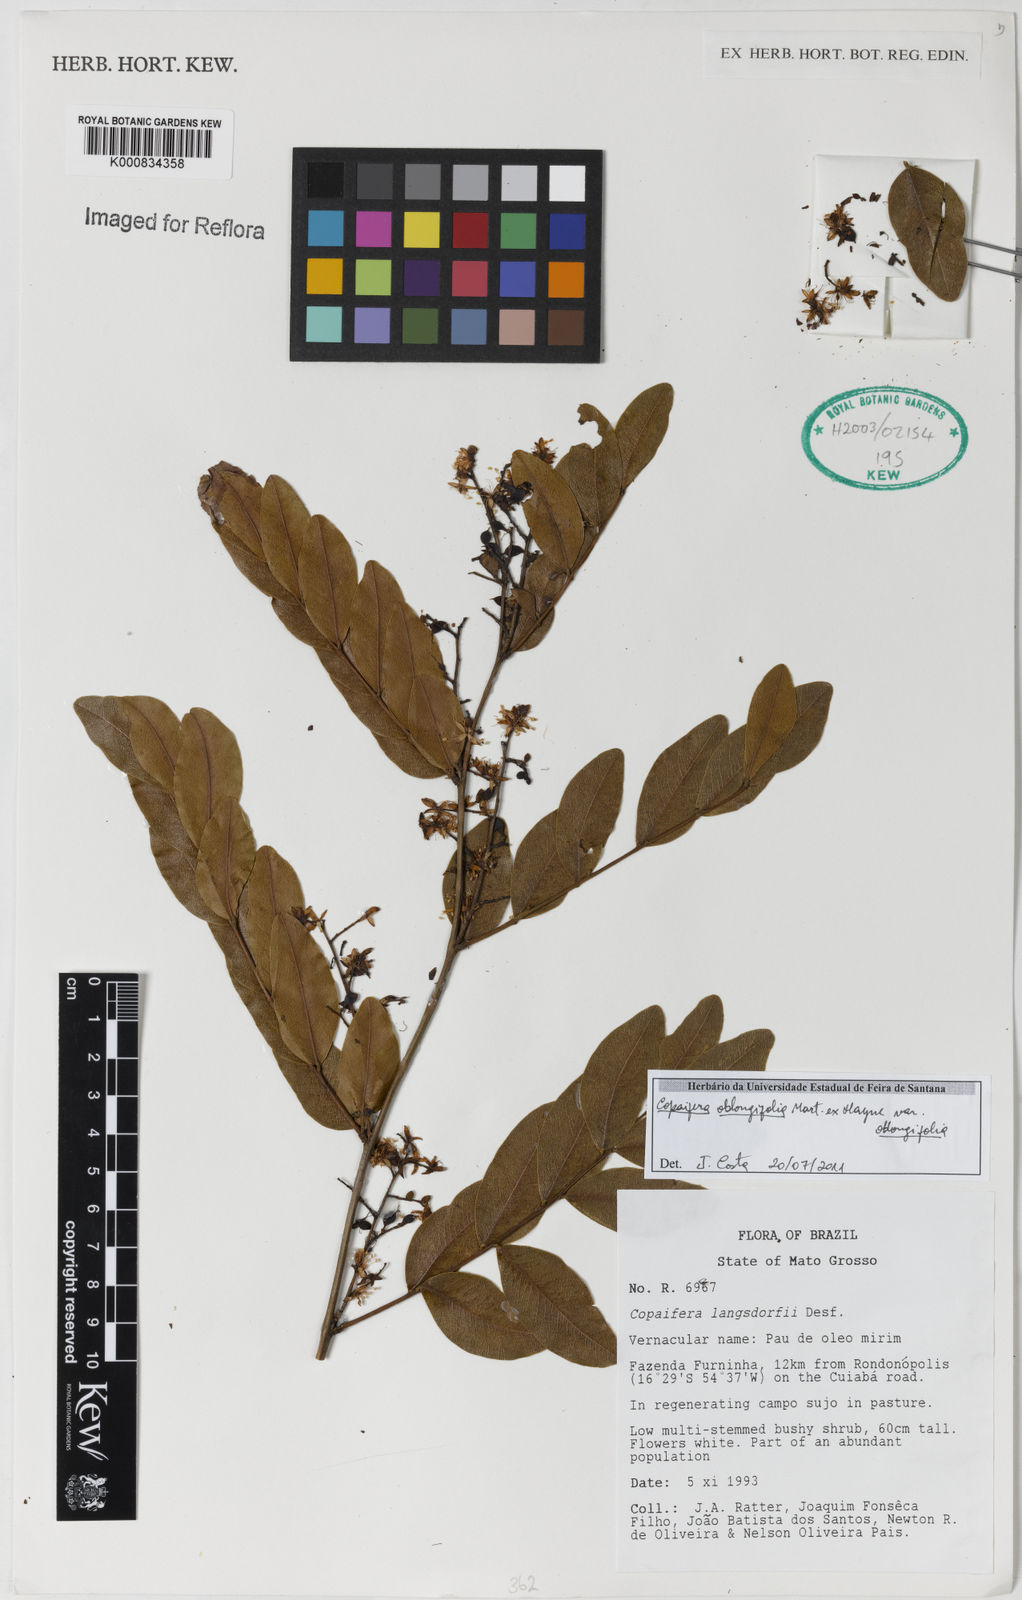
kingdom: Plantae
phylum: Tracheophyta
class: Magnoliopsida
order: Fabales
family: Fabaceae
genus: Copaifera
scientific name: Copaifera oblongifolia
